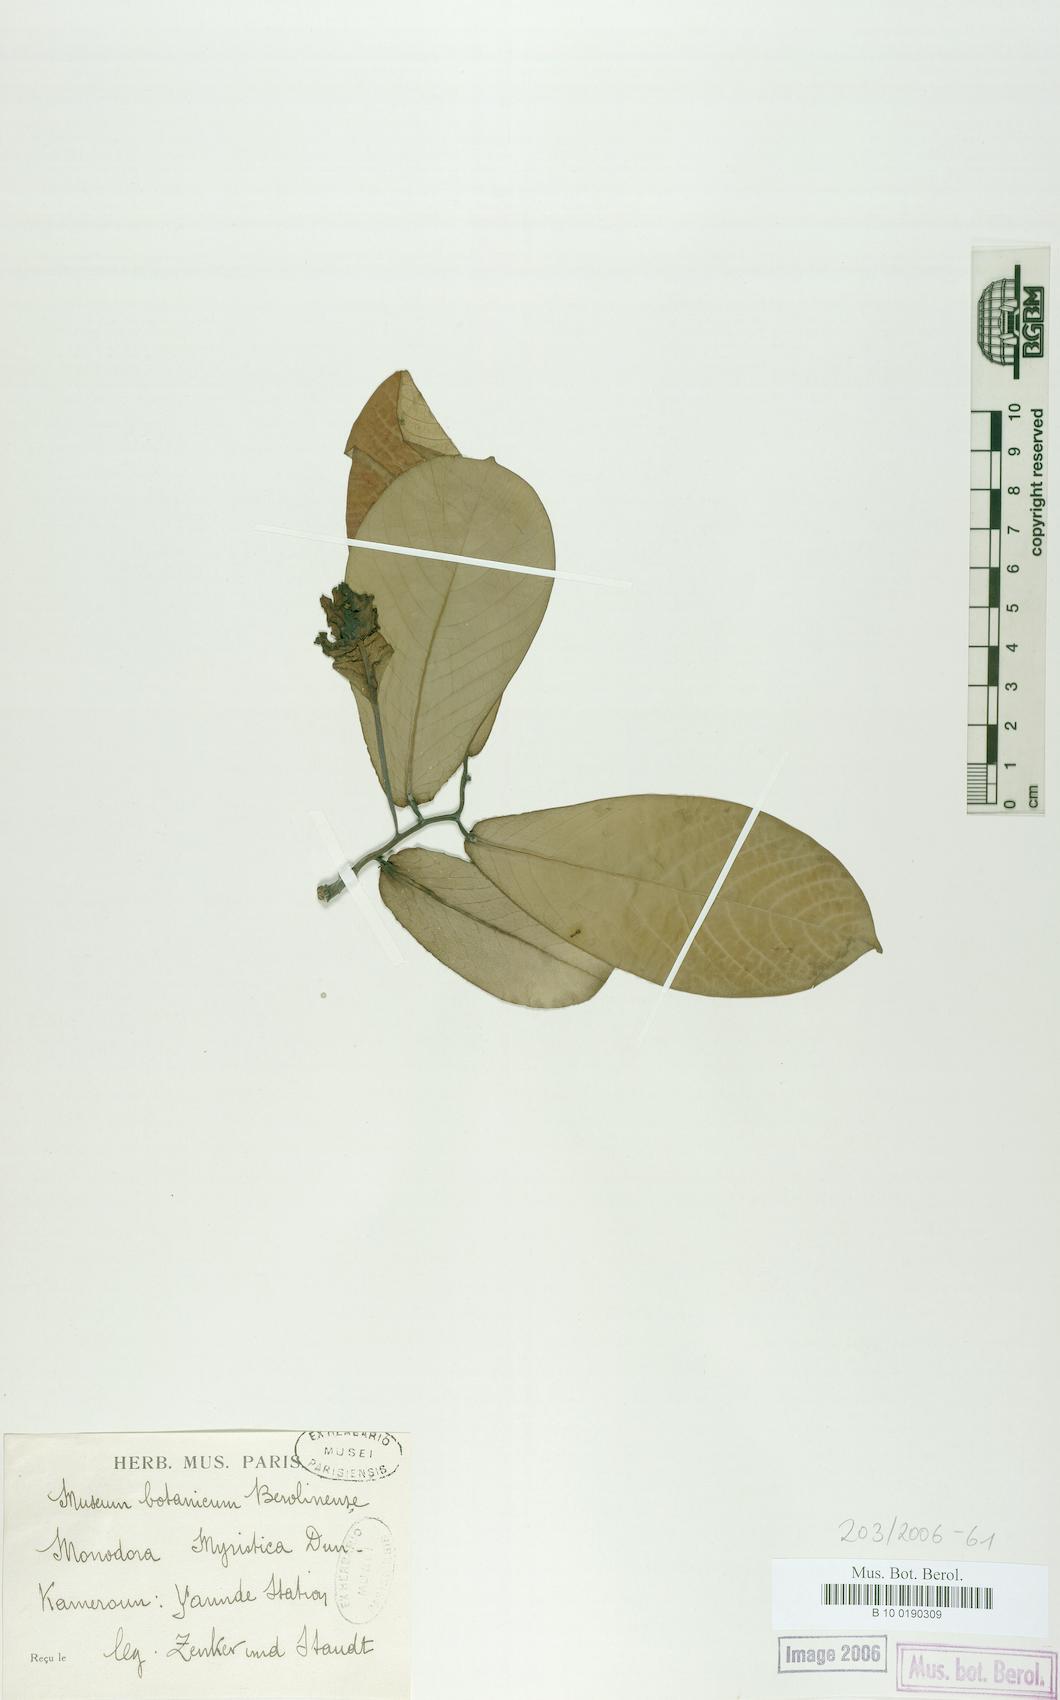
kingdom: Plantae
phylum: Tracheophyta
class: Magnoliopsida
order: Magnoliales
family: Annonaceae
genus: Monodora
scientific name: Monodora myristica
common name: African nutmeg
